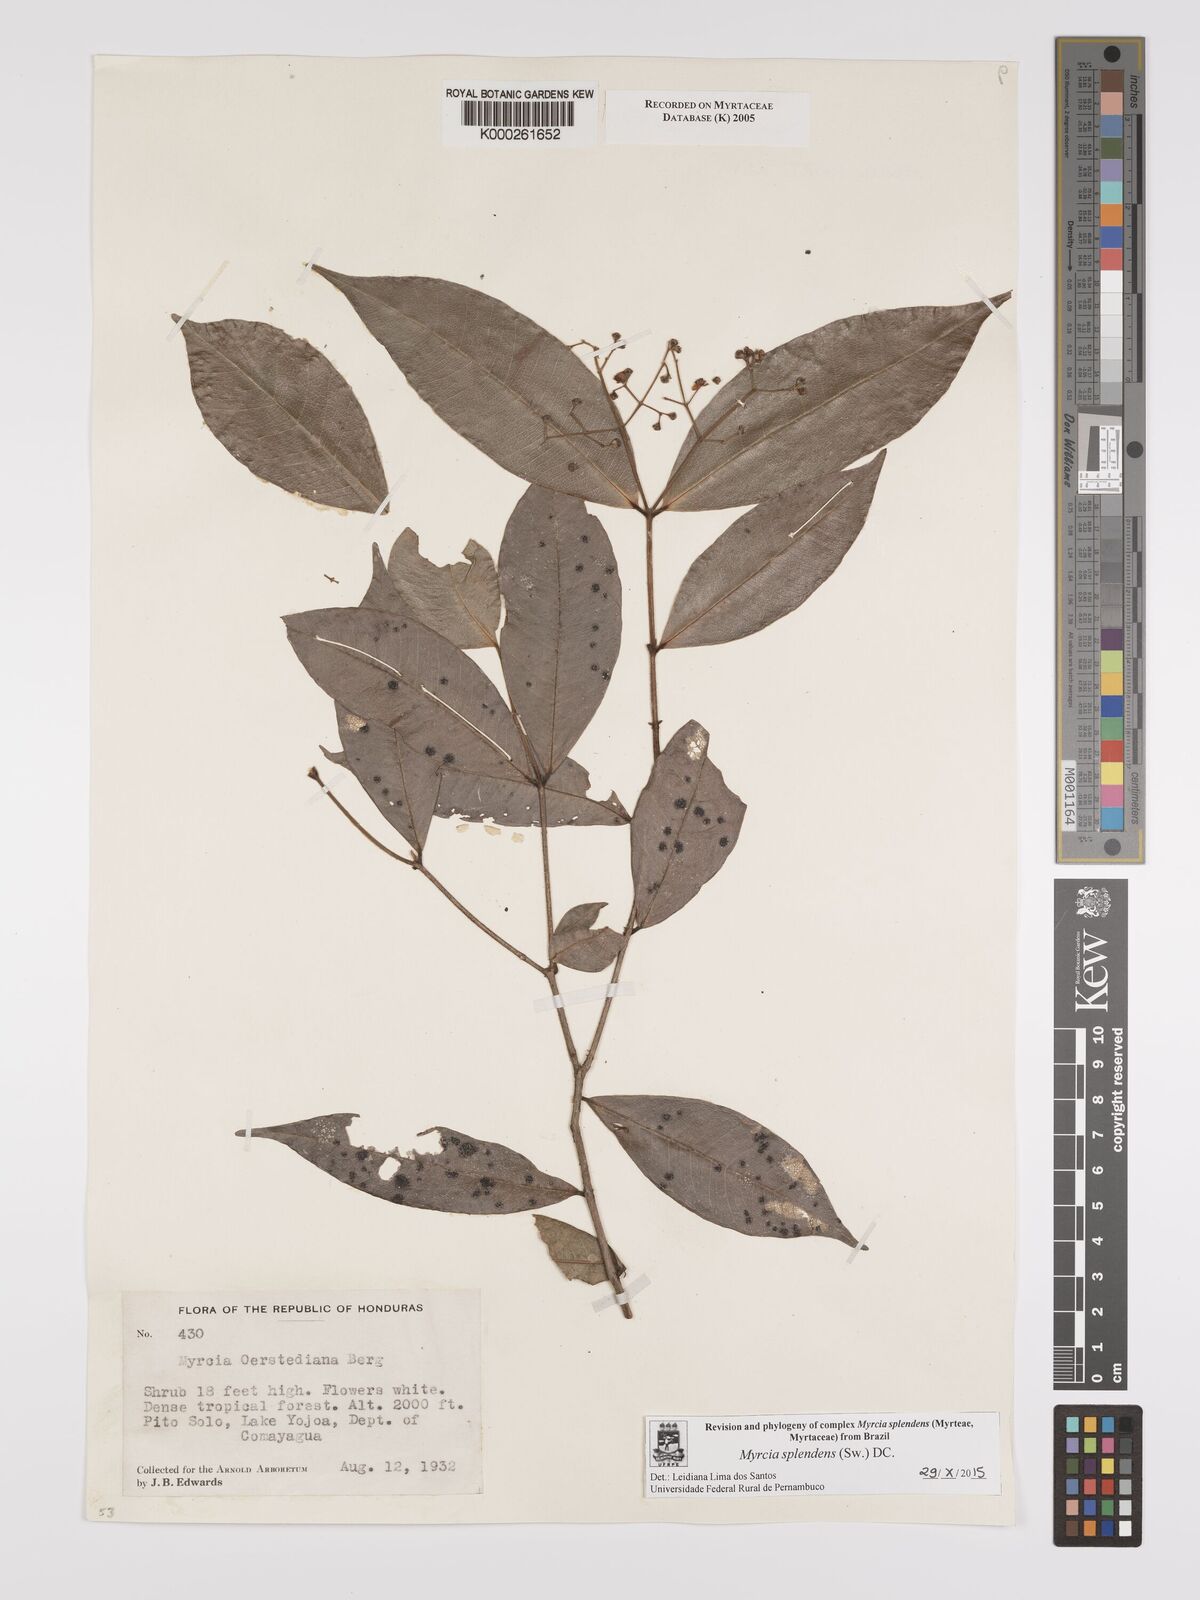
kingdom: Plantae
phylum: Tracheophyta
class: Magnoliopsida
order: Myrtales
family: Myrtaceae
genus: Myrcia
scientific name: Myrcia splendens
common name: Surinam cherry
